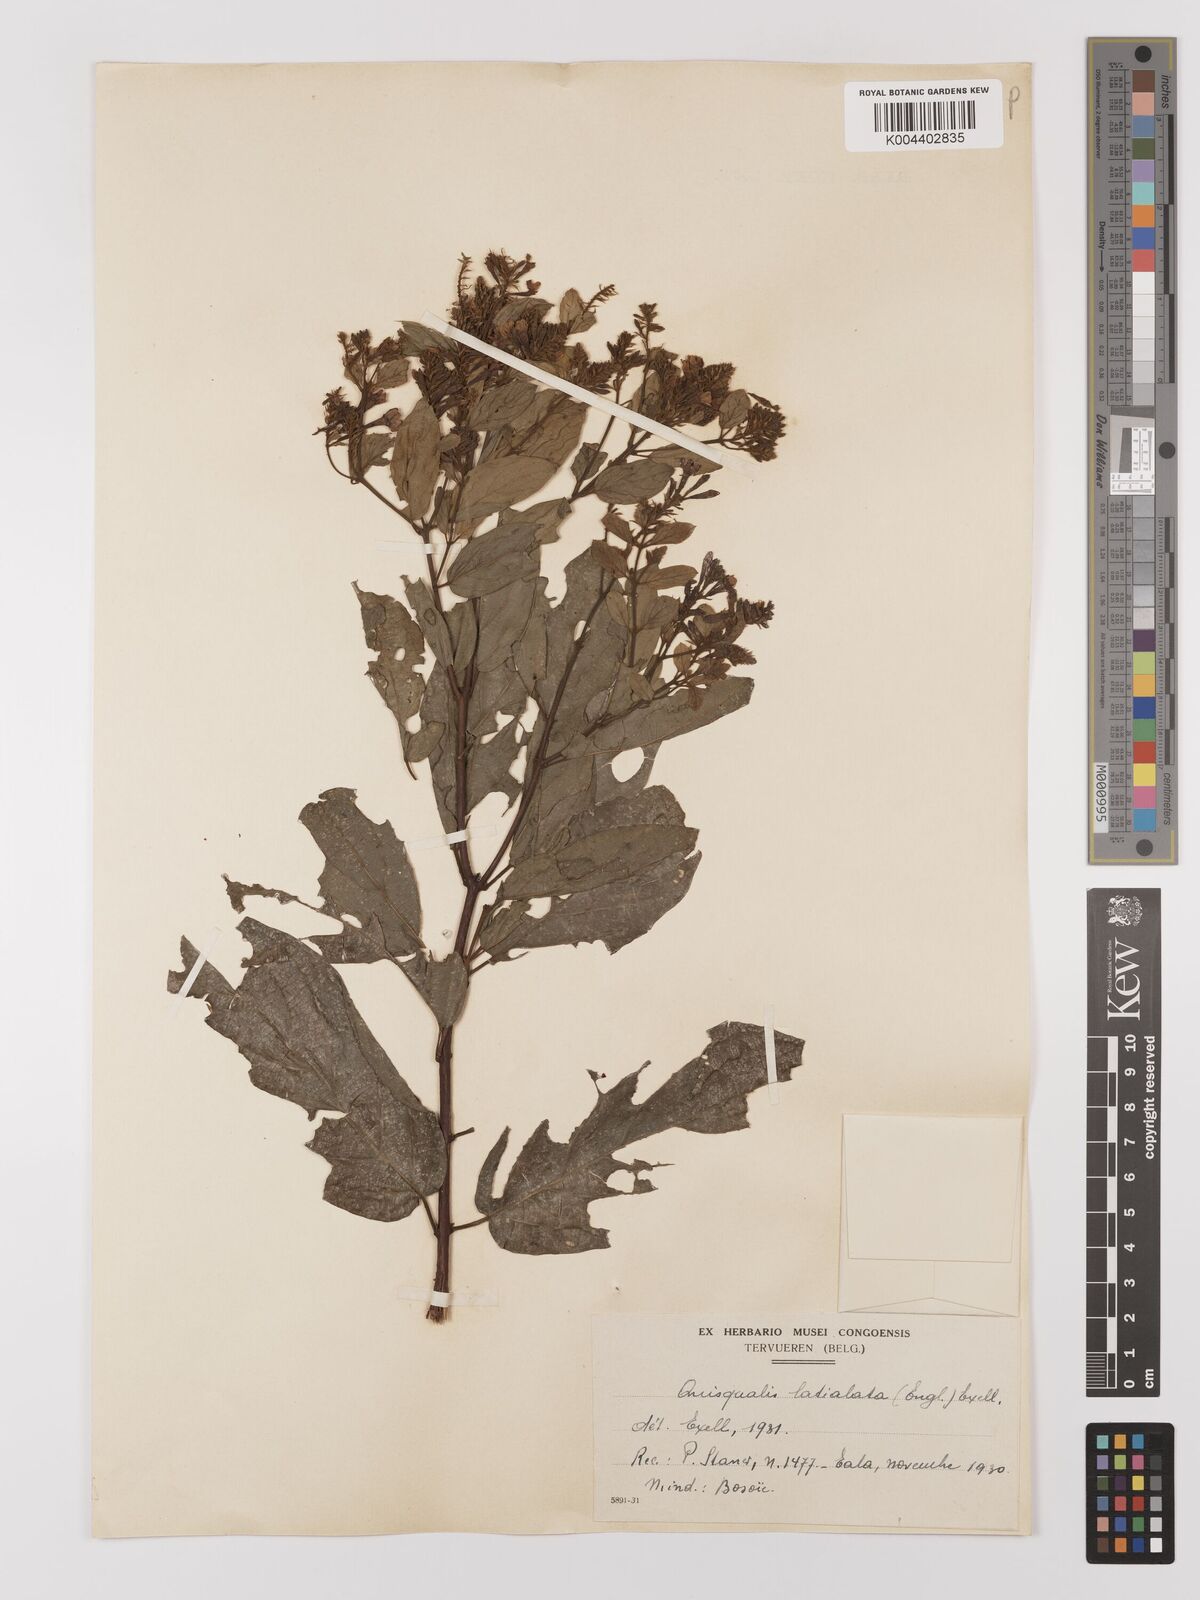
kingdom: Plantae
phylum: Tracheophyta
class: Magnoliopsida
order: Myrtales
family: Combretaceae
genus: Combretum
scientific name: Combretum latialatum
